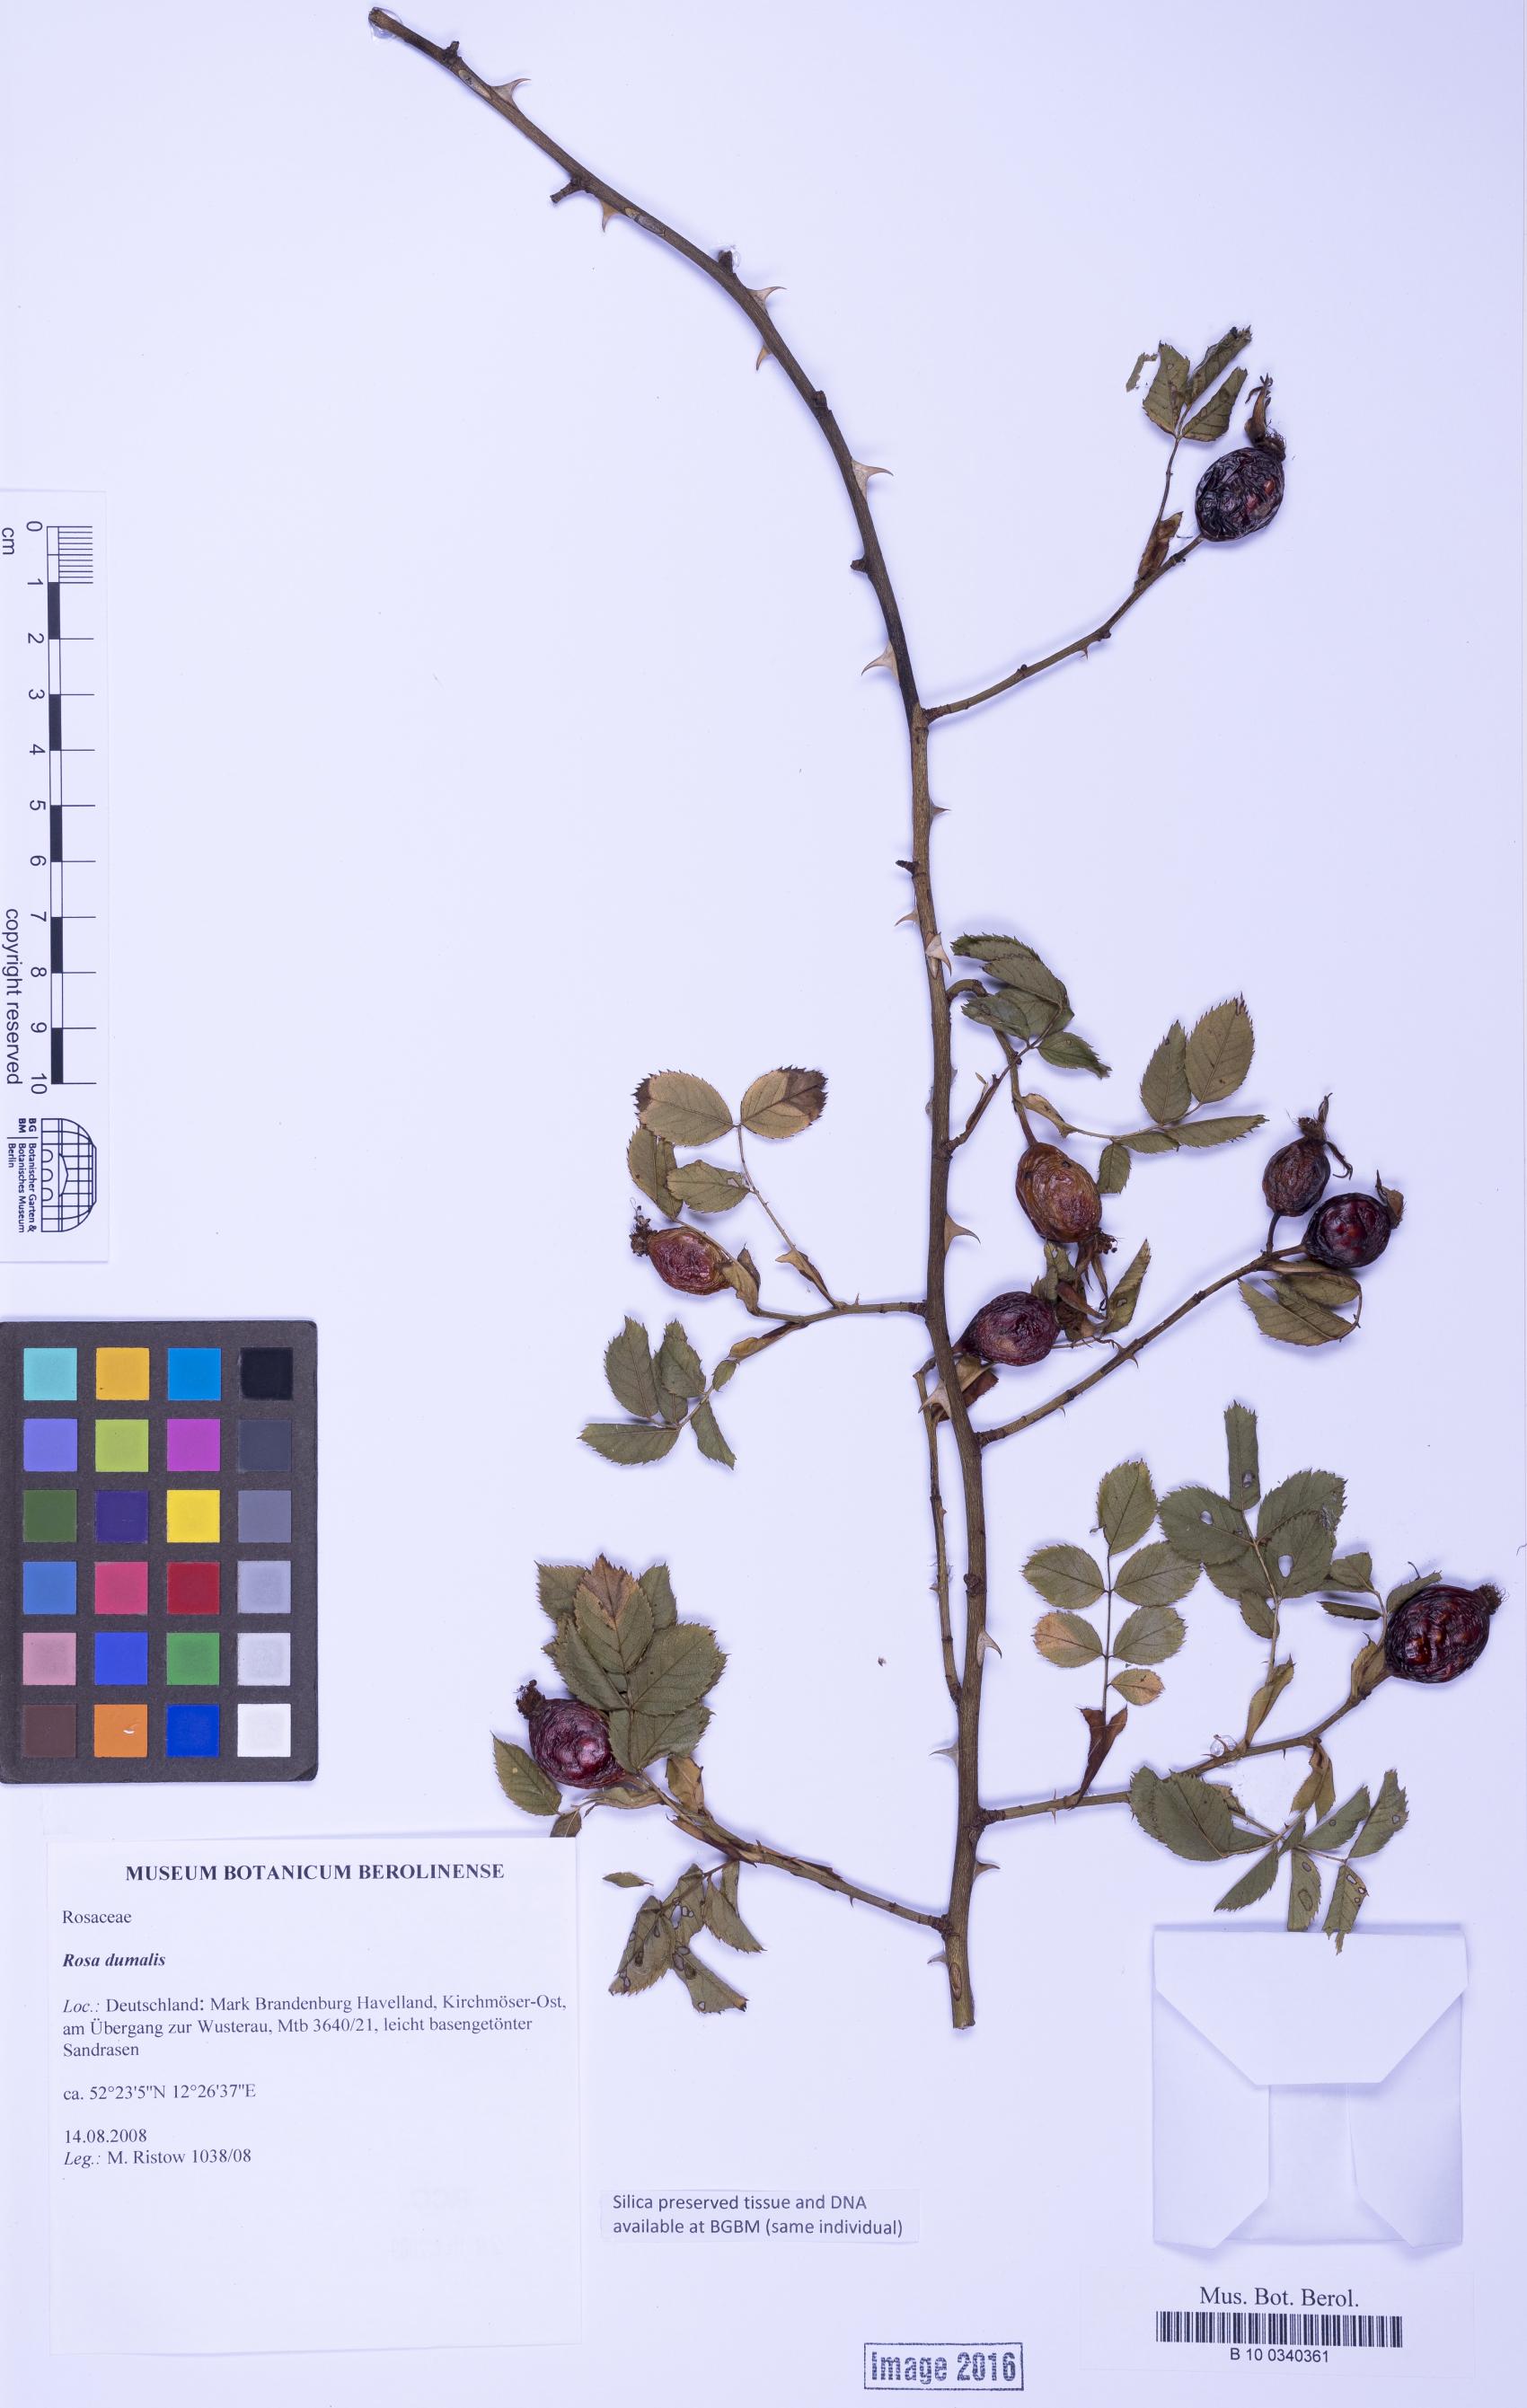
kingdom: Plantae
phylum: Tracheophyta
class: Magnoliopsida
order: Rosales
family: Rosaceae
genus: Rosa
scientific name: Rosa dumalis
